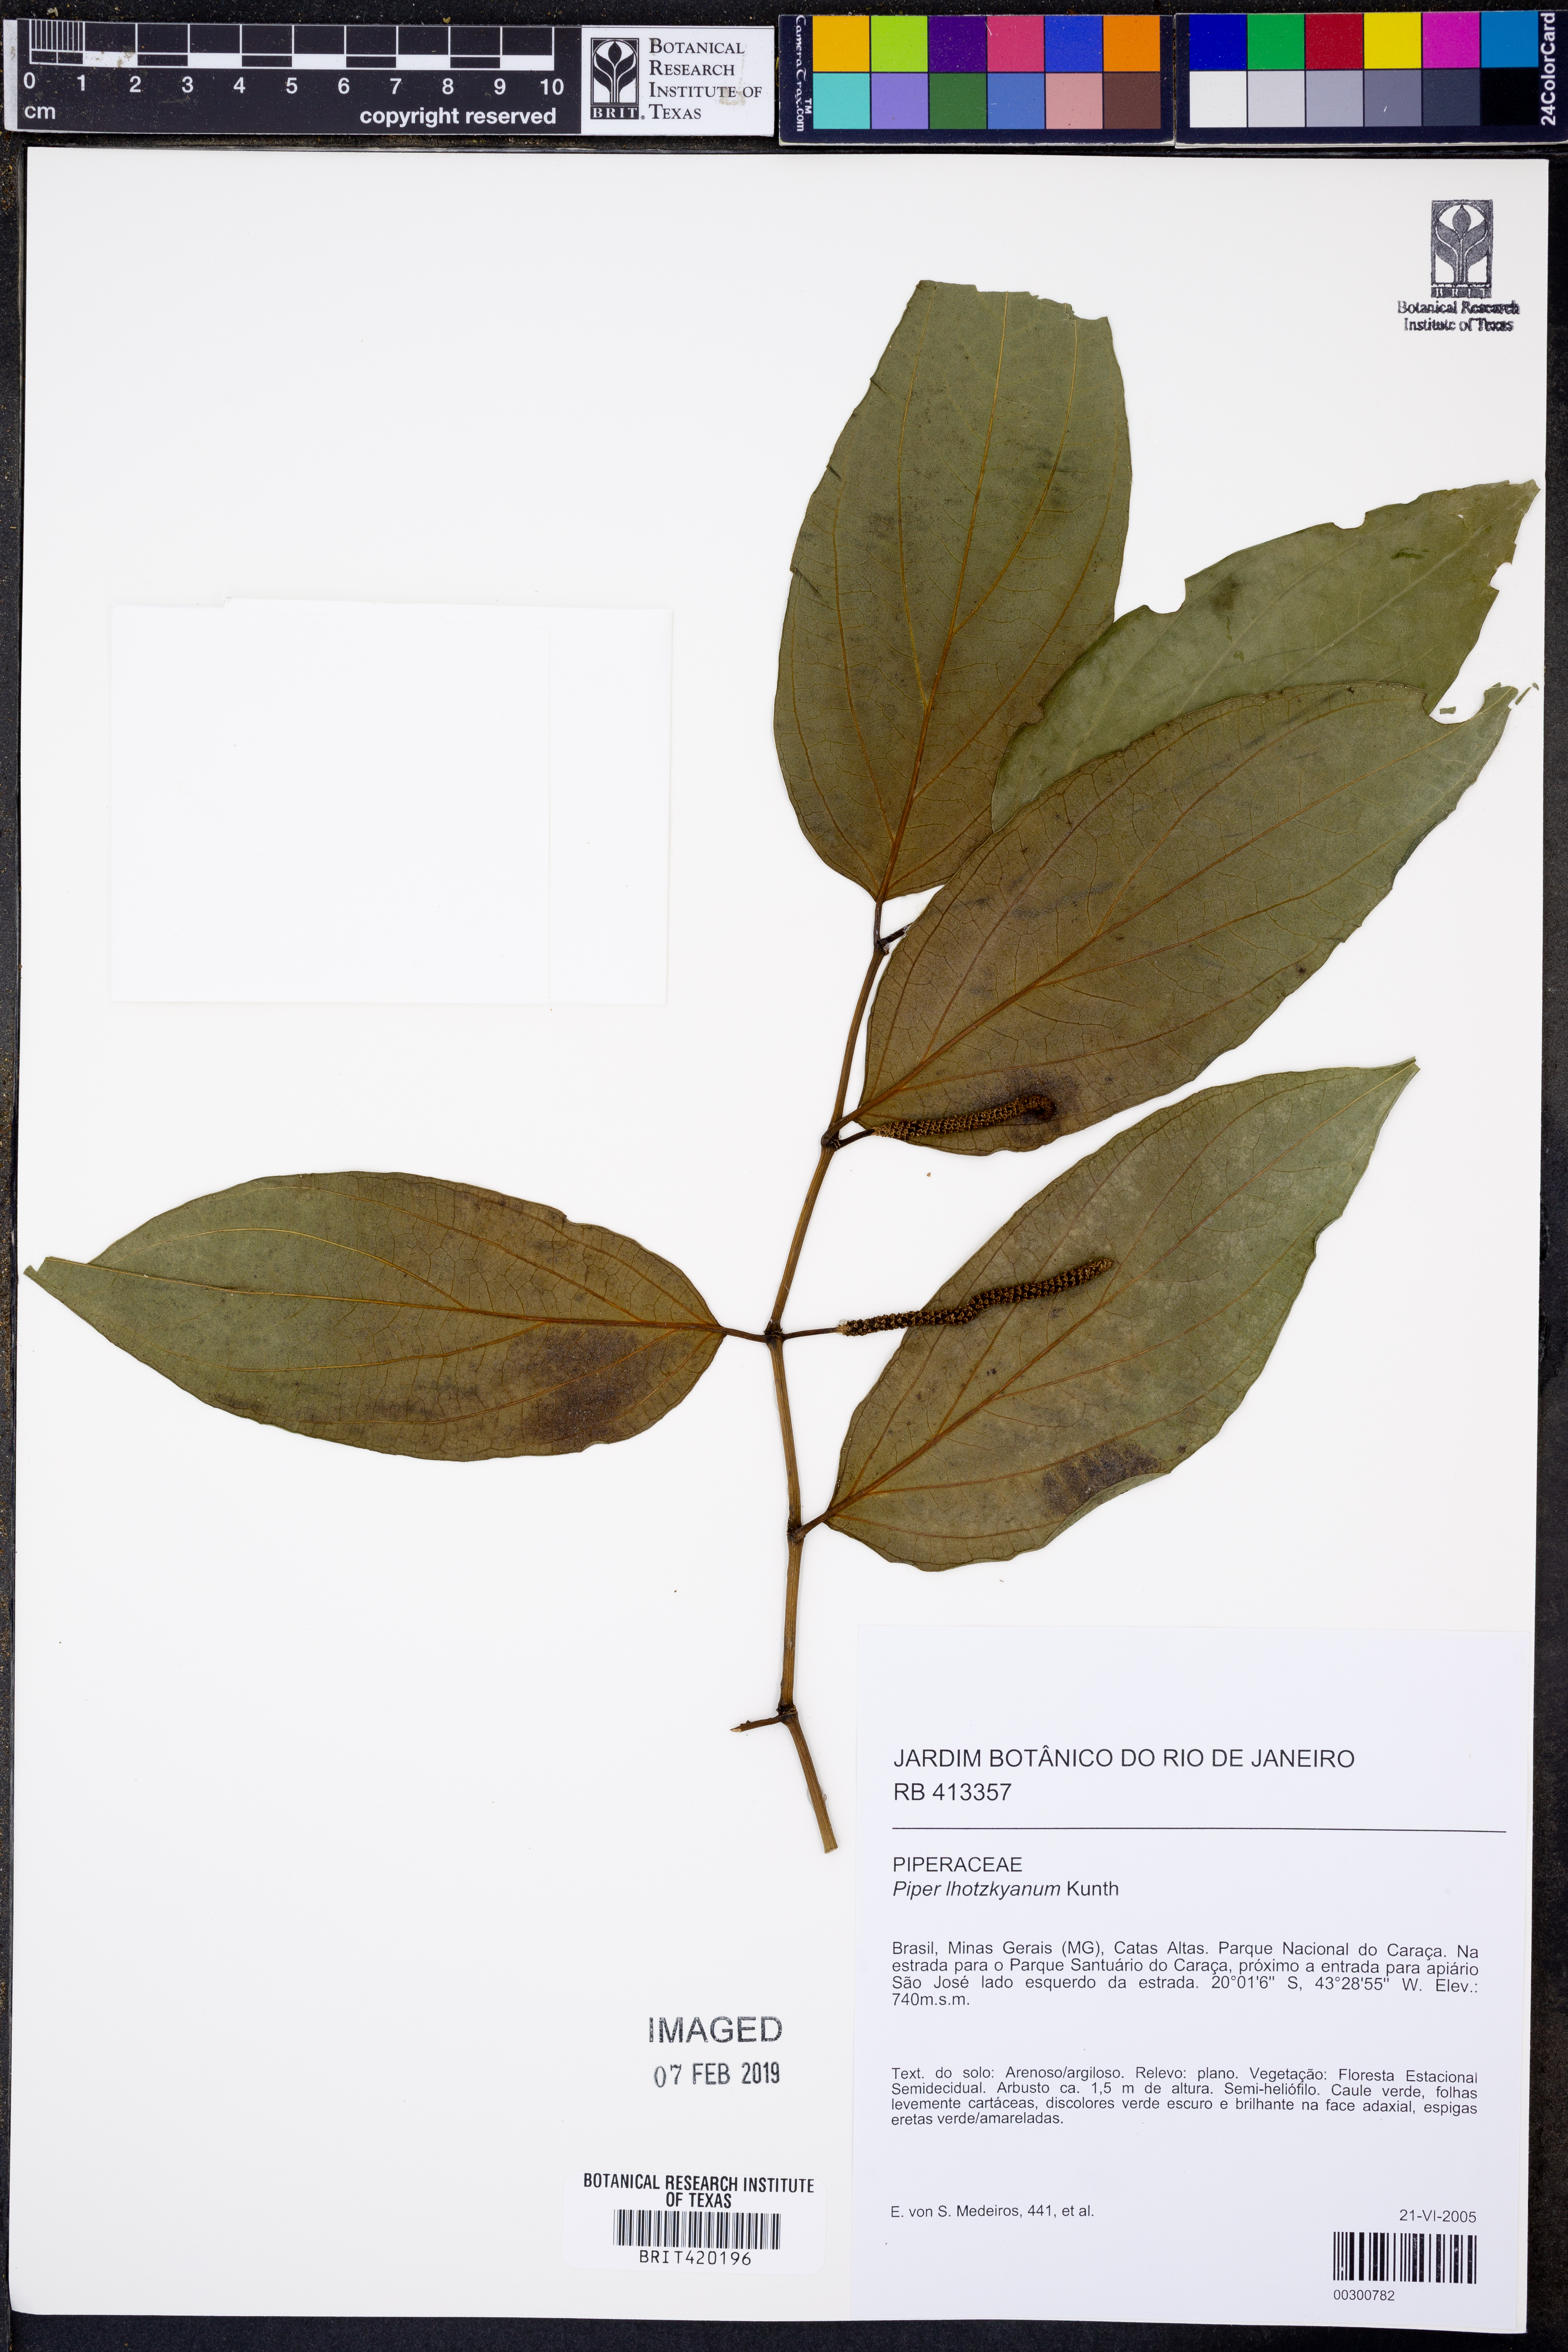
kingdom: Plantae
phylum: Tracheophyta
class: Magnoliopsida
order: Piperales
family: Piperaceae
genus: Piper
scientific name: Piper lhotzkyanum
